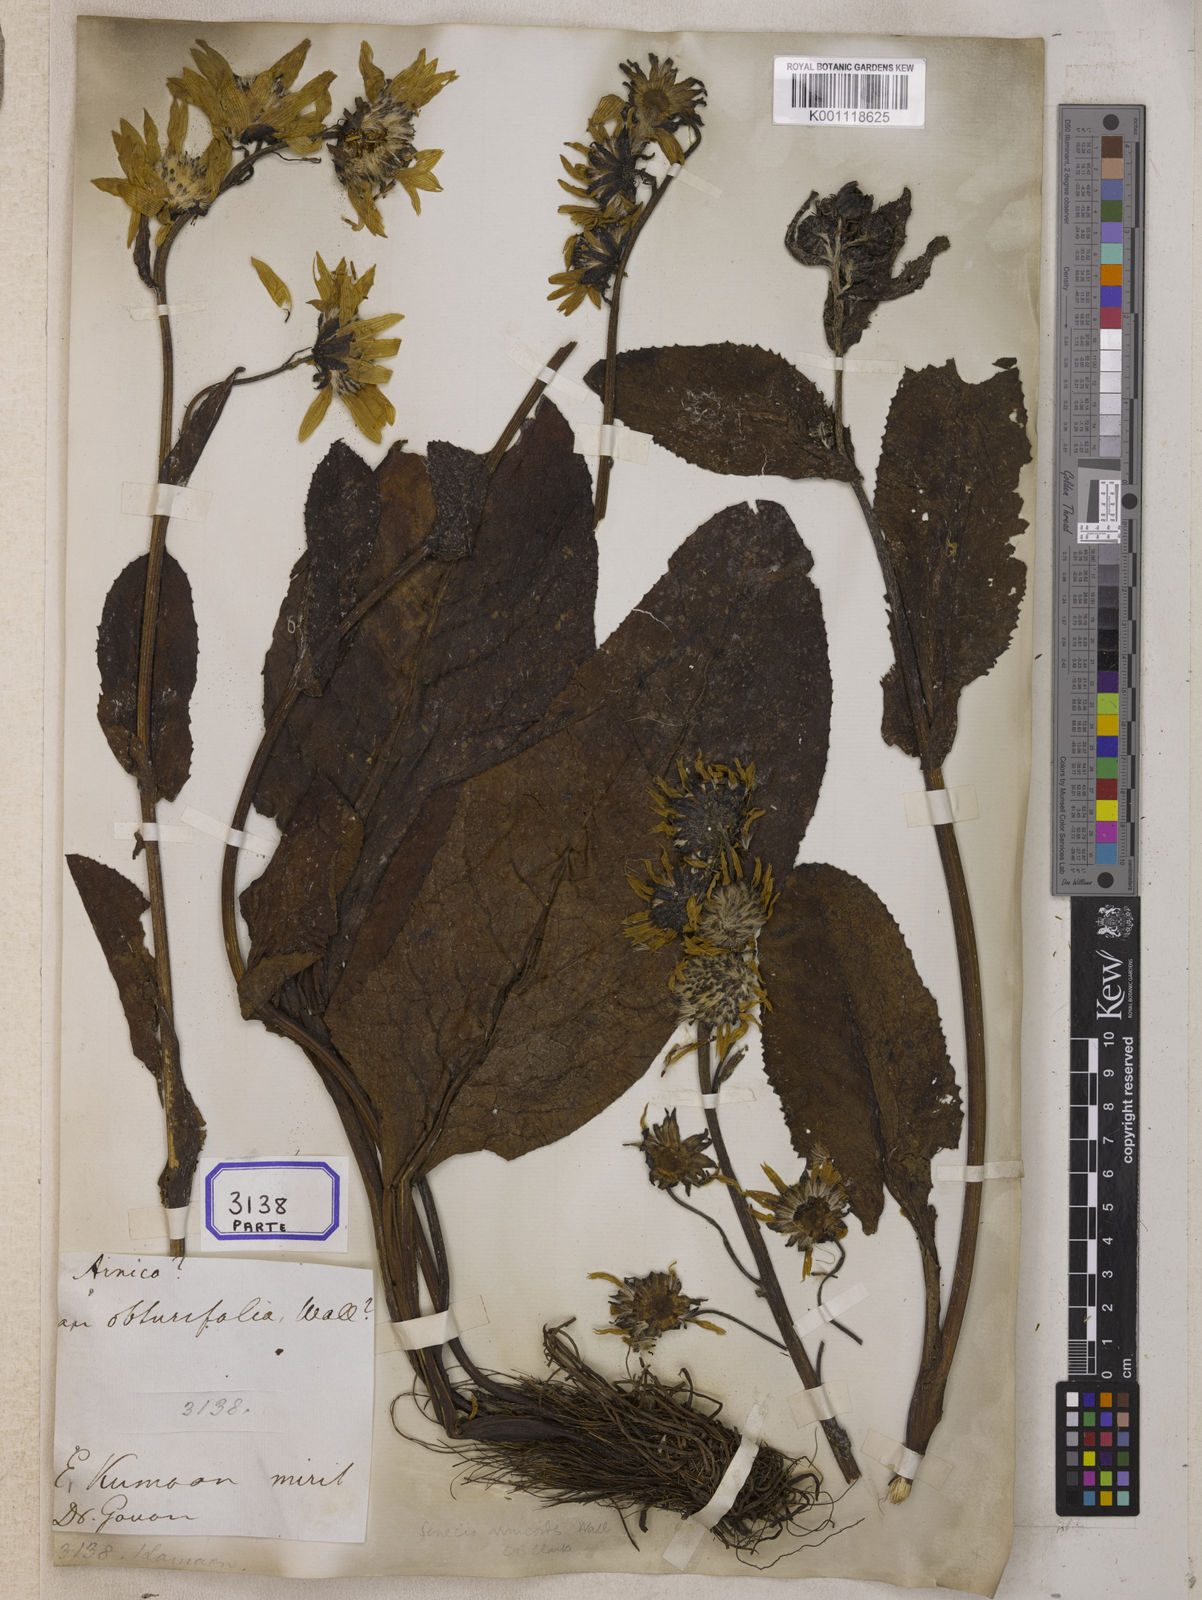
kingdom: Plantae
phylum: Tracheophyta
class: Magnoliopsida
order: Asterales
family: Asteraceae
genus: Senecio
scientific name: Senecio
